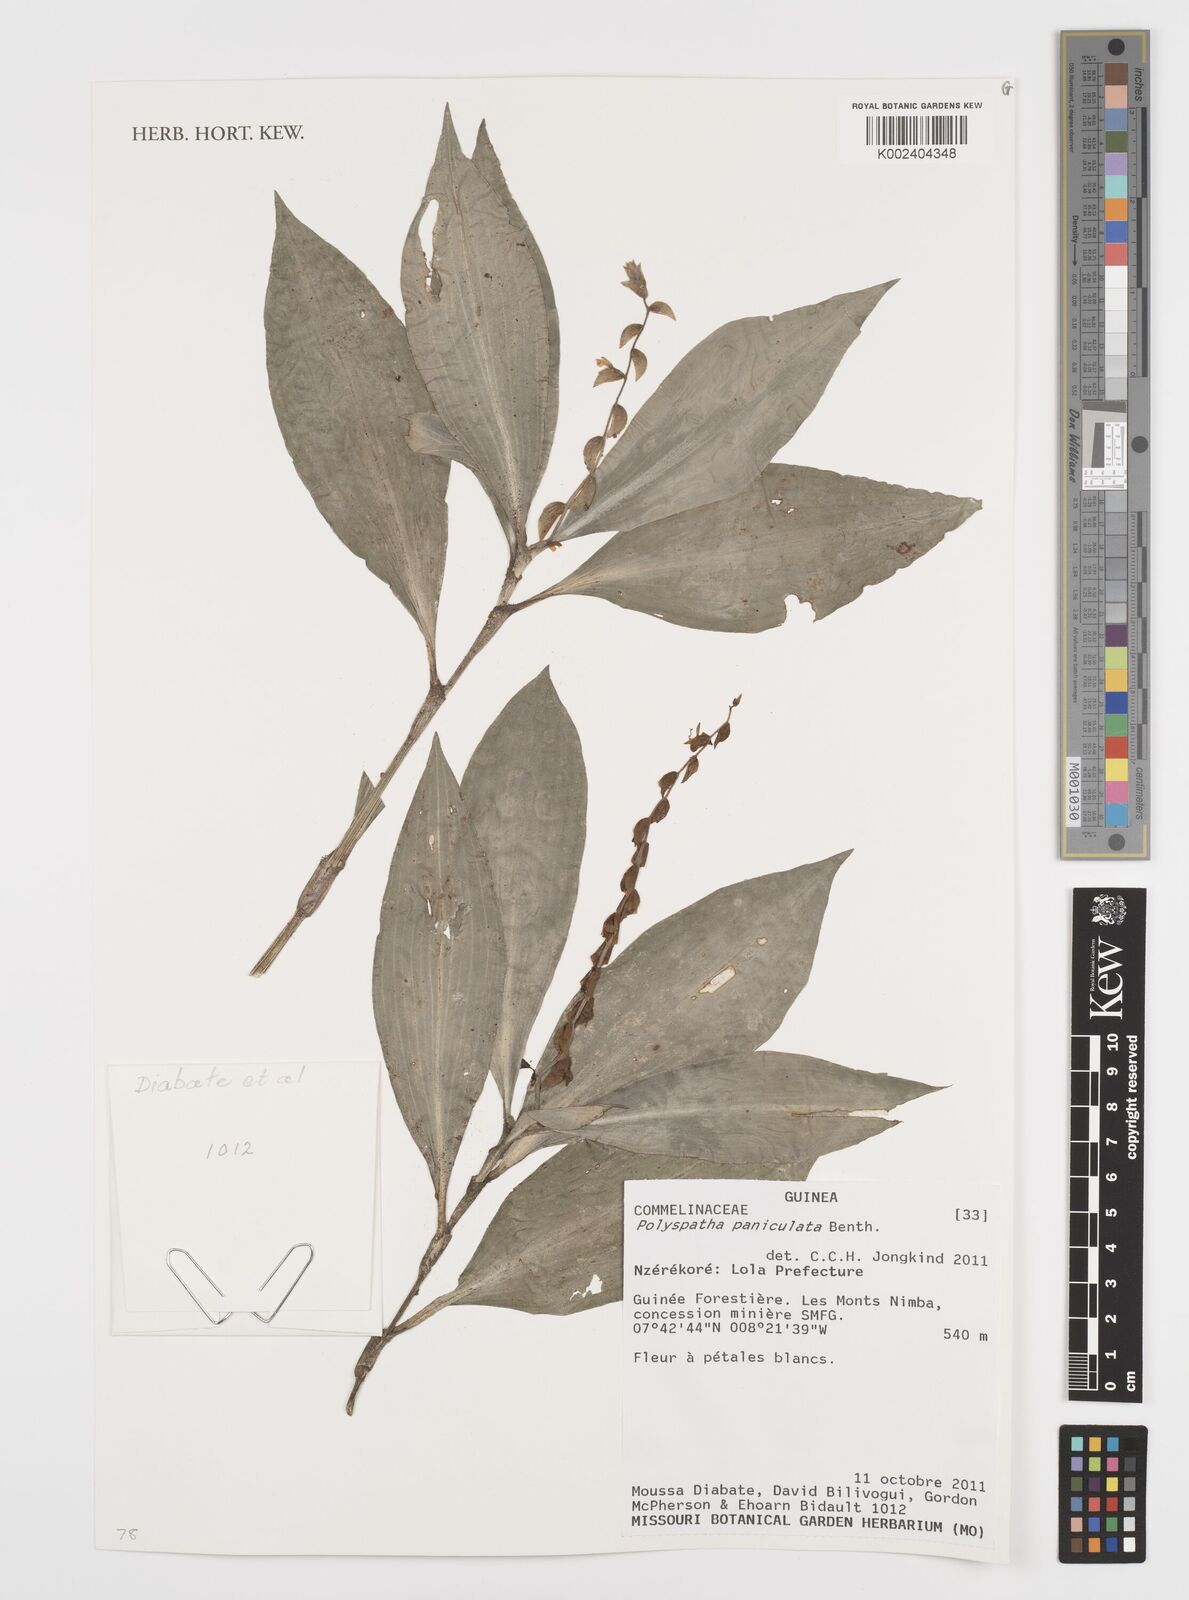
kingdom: Plantae
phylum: Tracheophyta
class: Liliopsida
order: Commelinales
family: Commelinaceae
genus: Polyspatha
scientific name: Polyspatha paniculata
